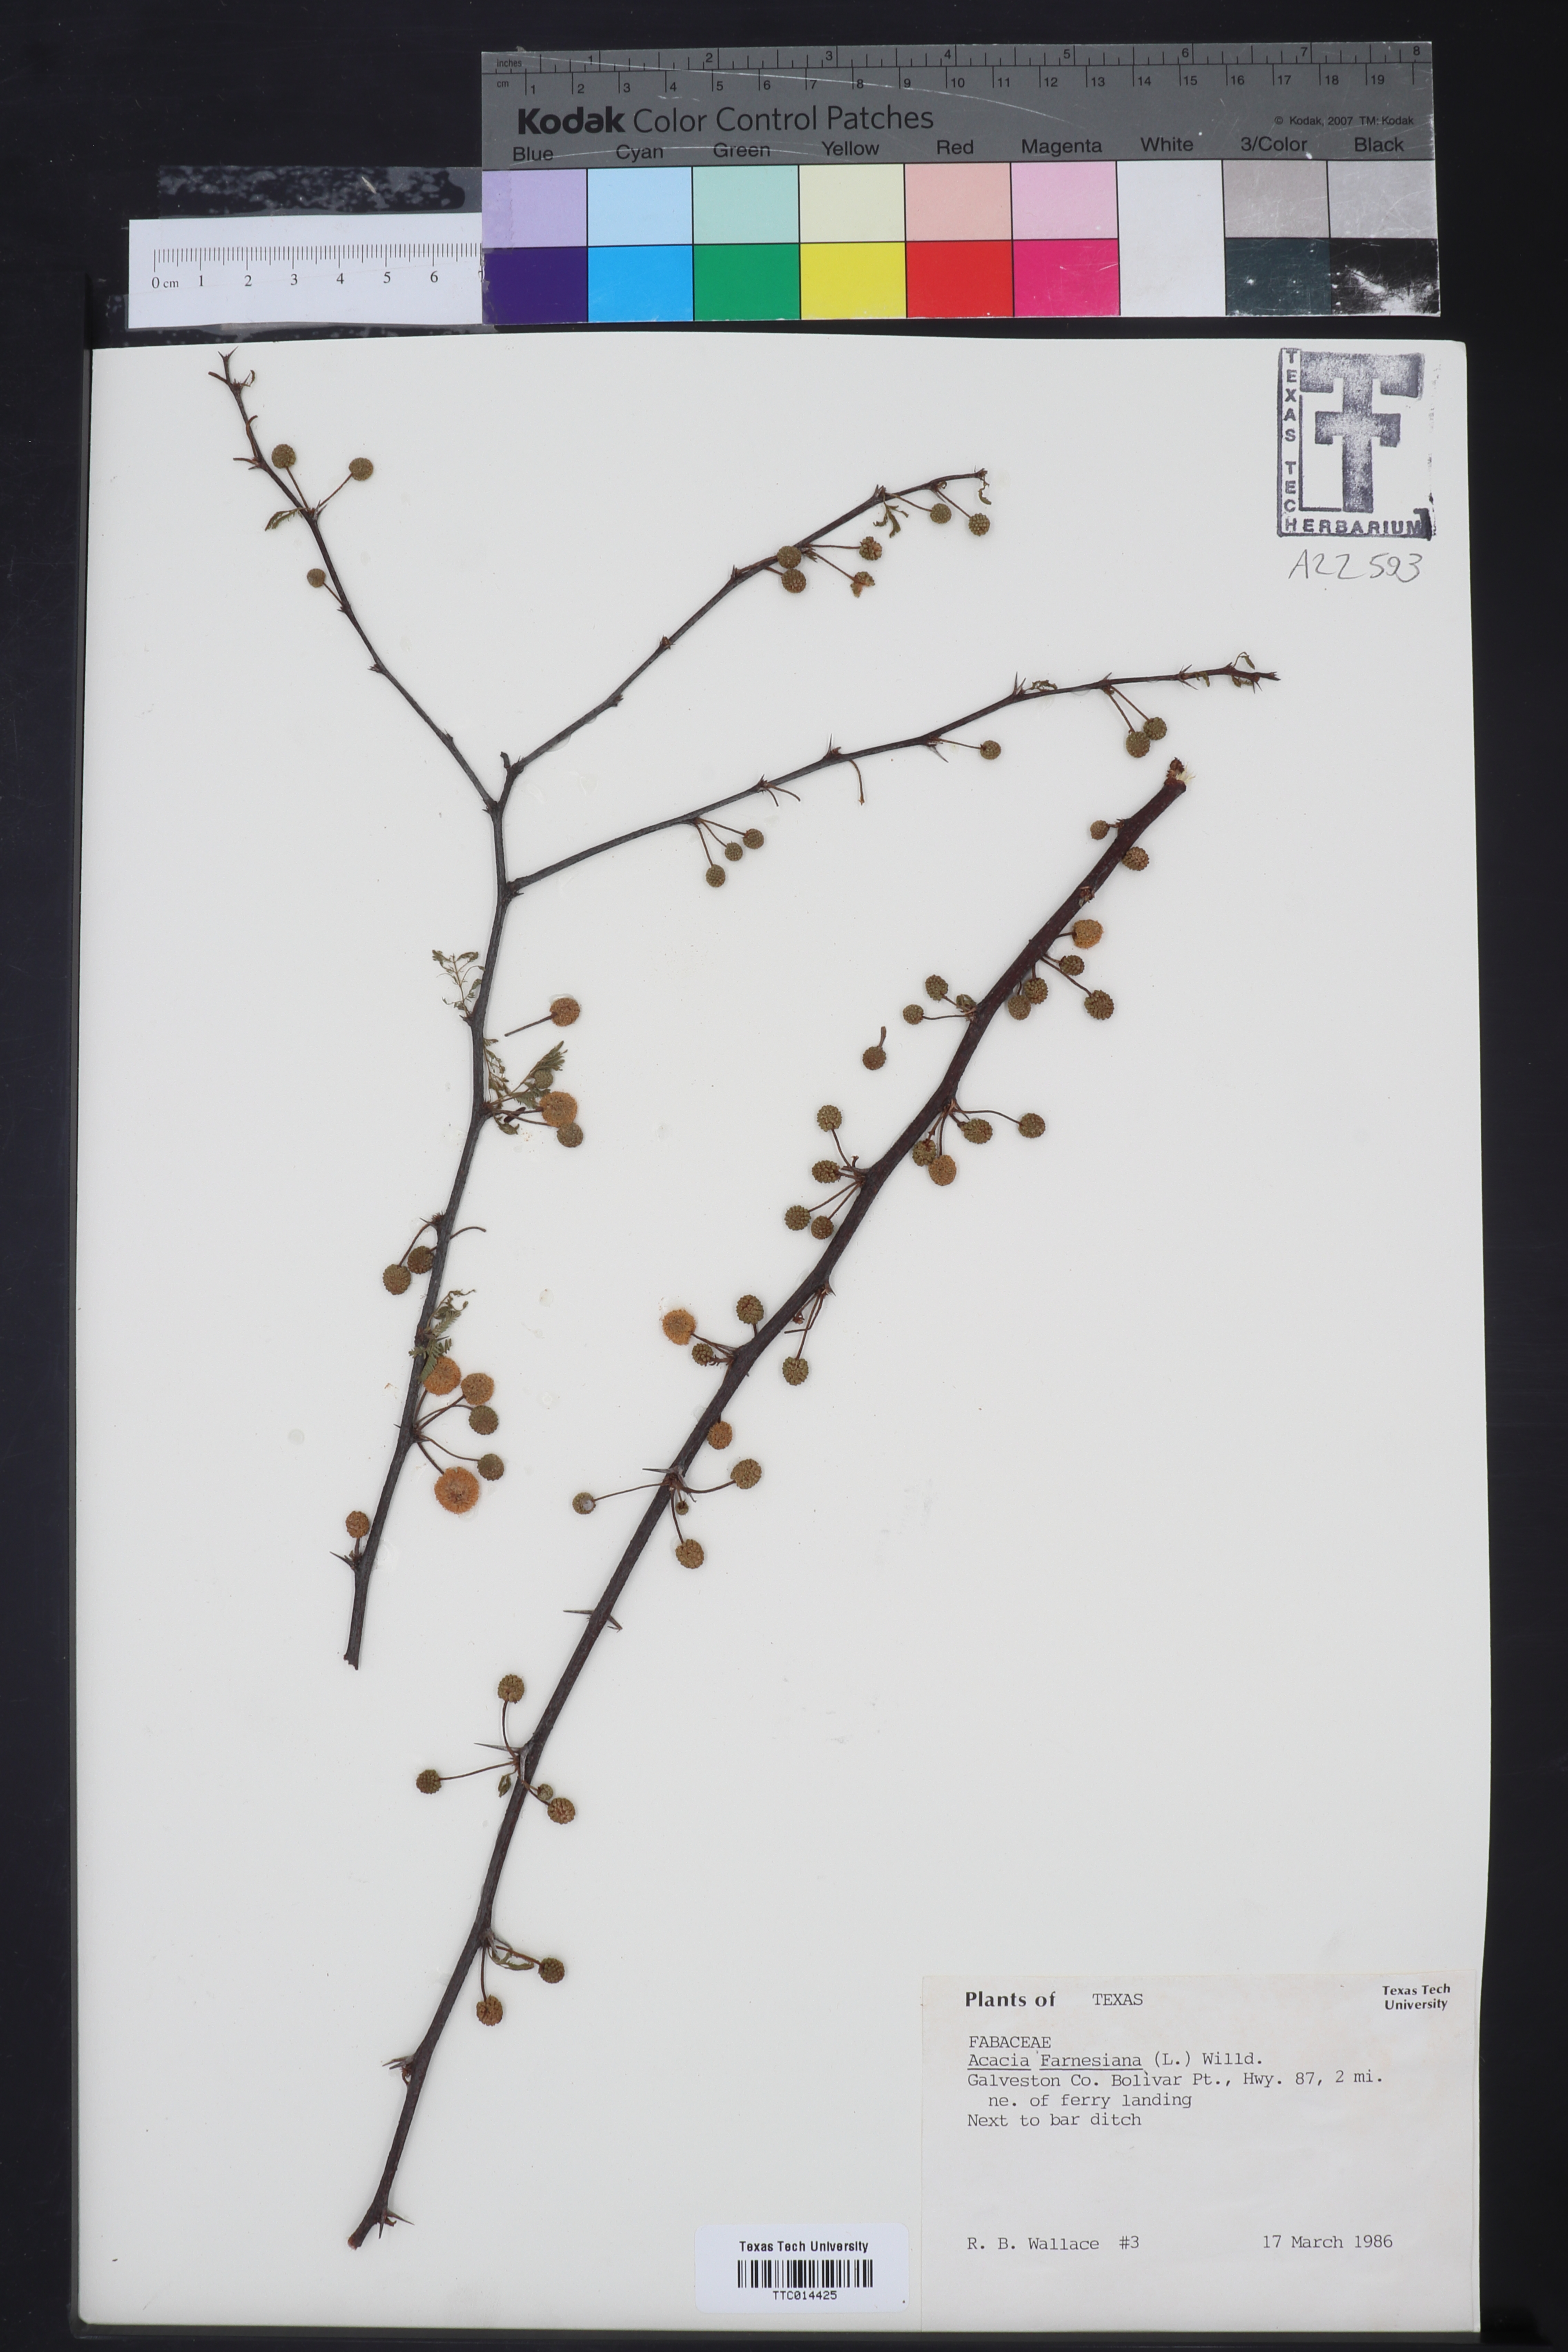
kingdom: Plantae
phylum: Tracheophyta
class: Magnoliopsida
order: Fabales
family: Fabaceae
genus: Vachellia
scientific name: Vachellia farnesiana
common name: Sweet acacia
